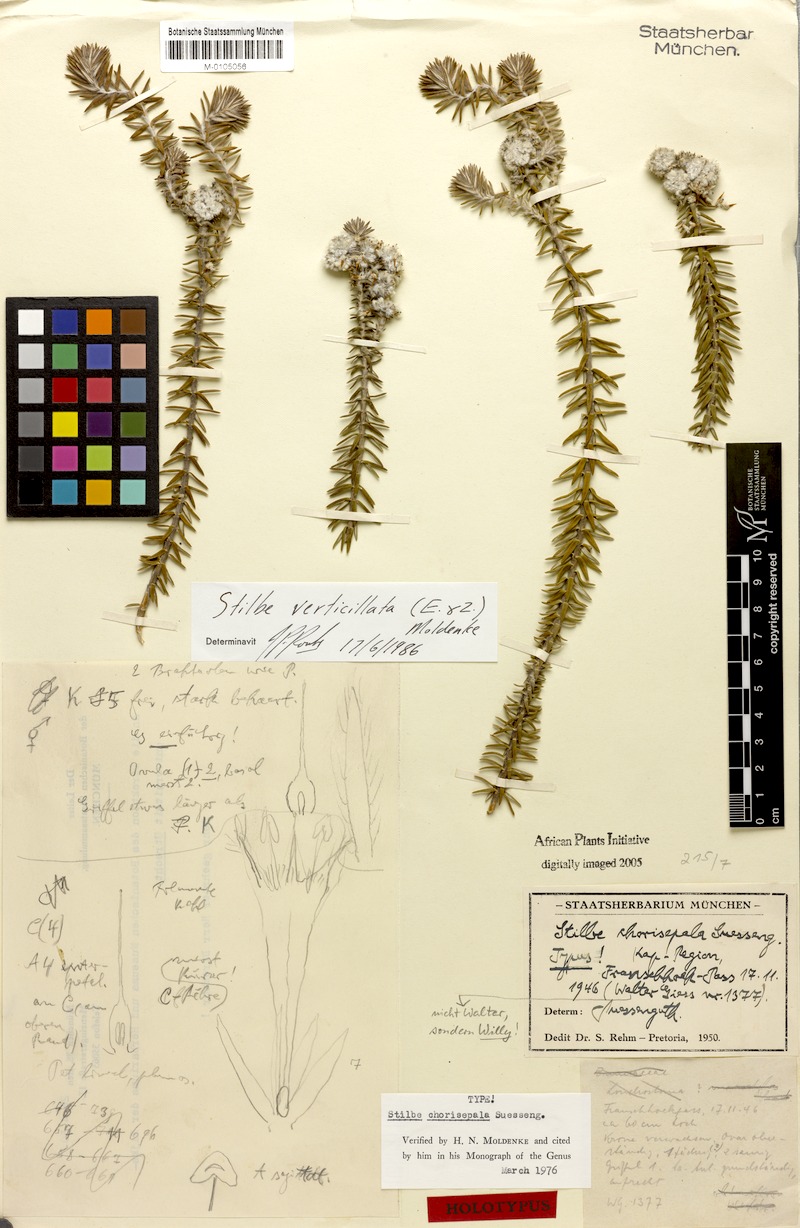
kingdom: Plantae
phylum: Tracheophyta
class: Magnoliopsida
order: Lamiales
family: Stilbaceae
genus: Kogelbergia
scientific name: Kogelbergia verticillata
